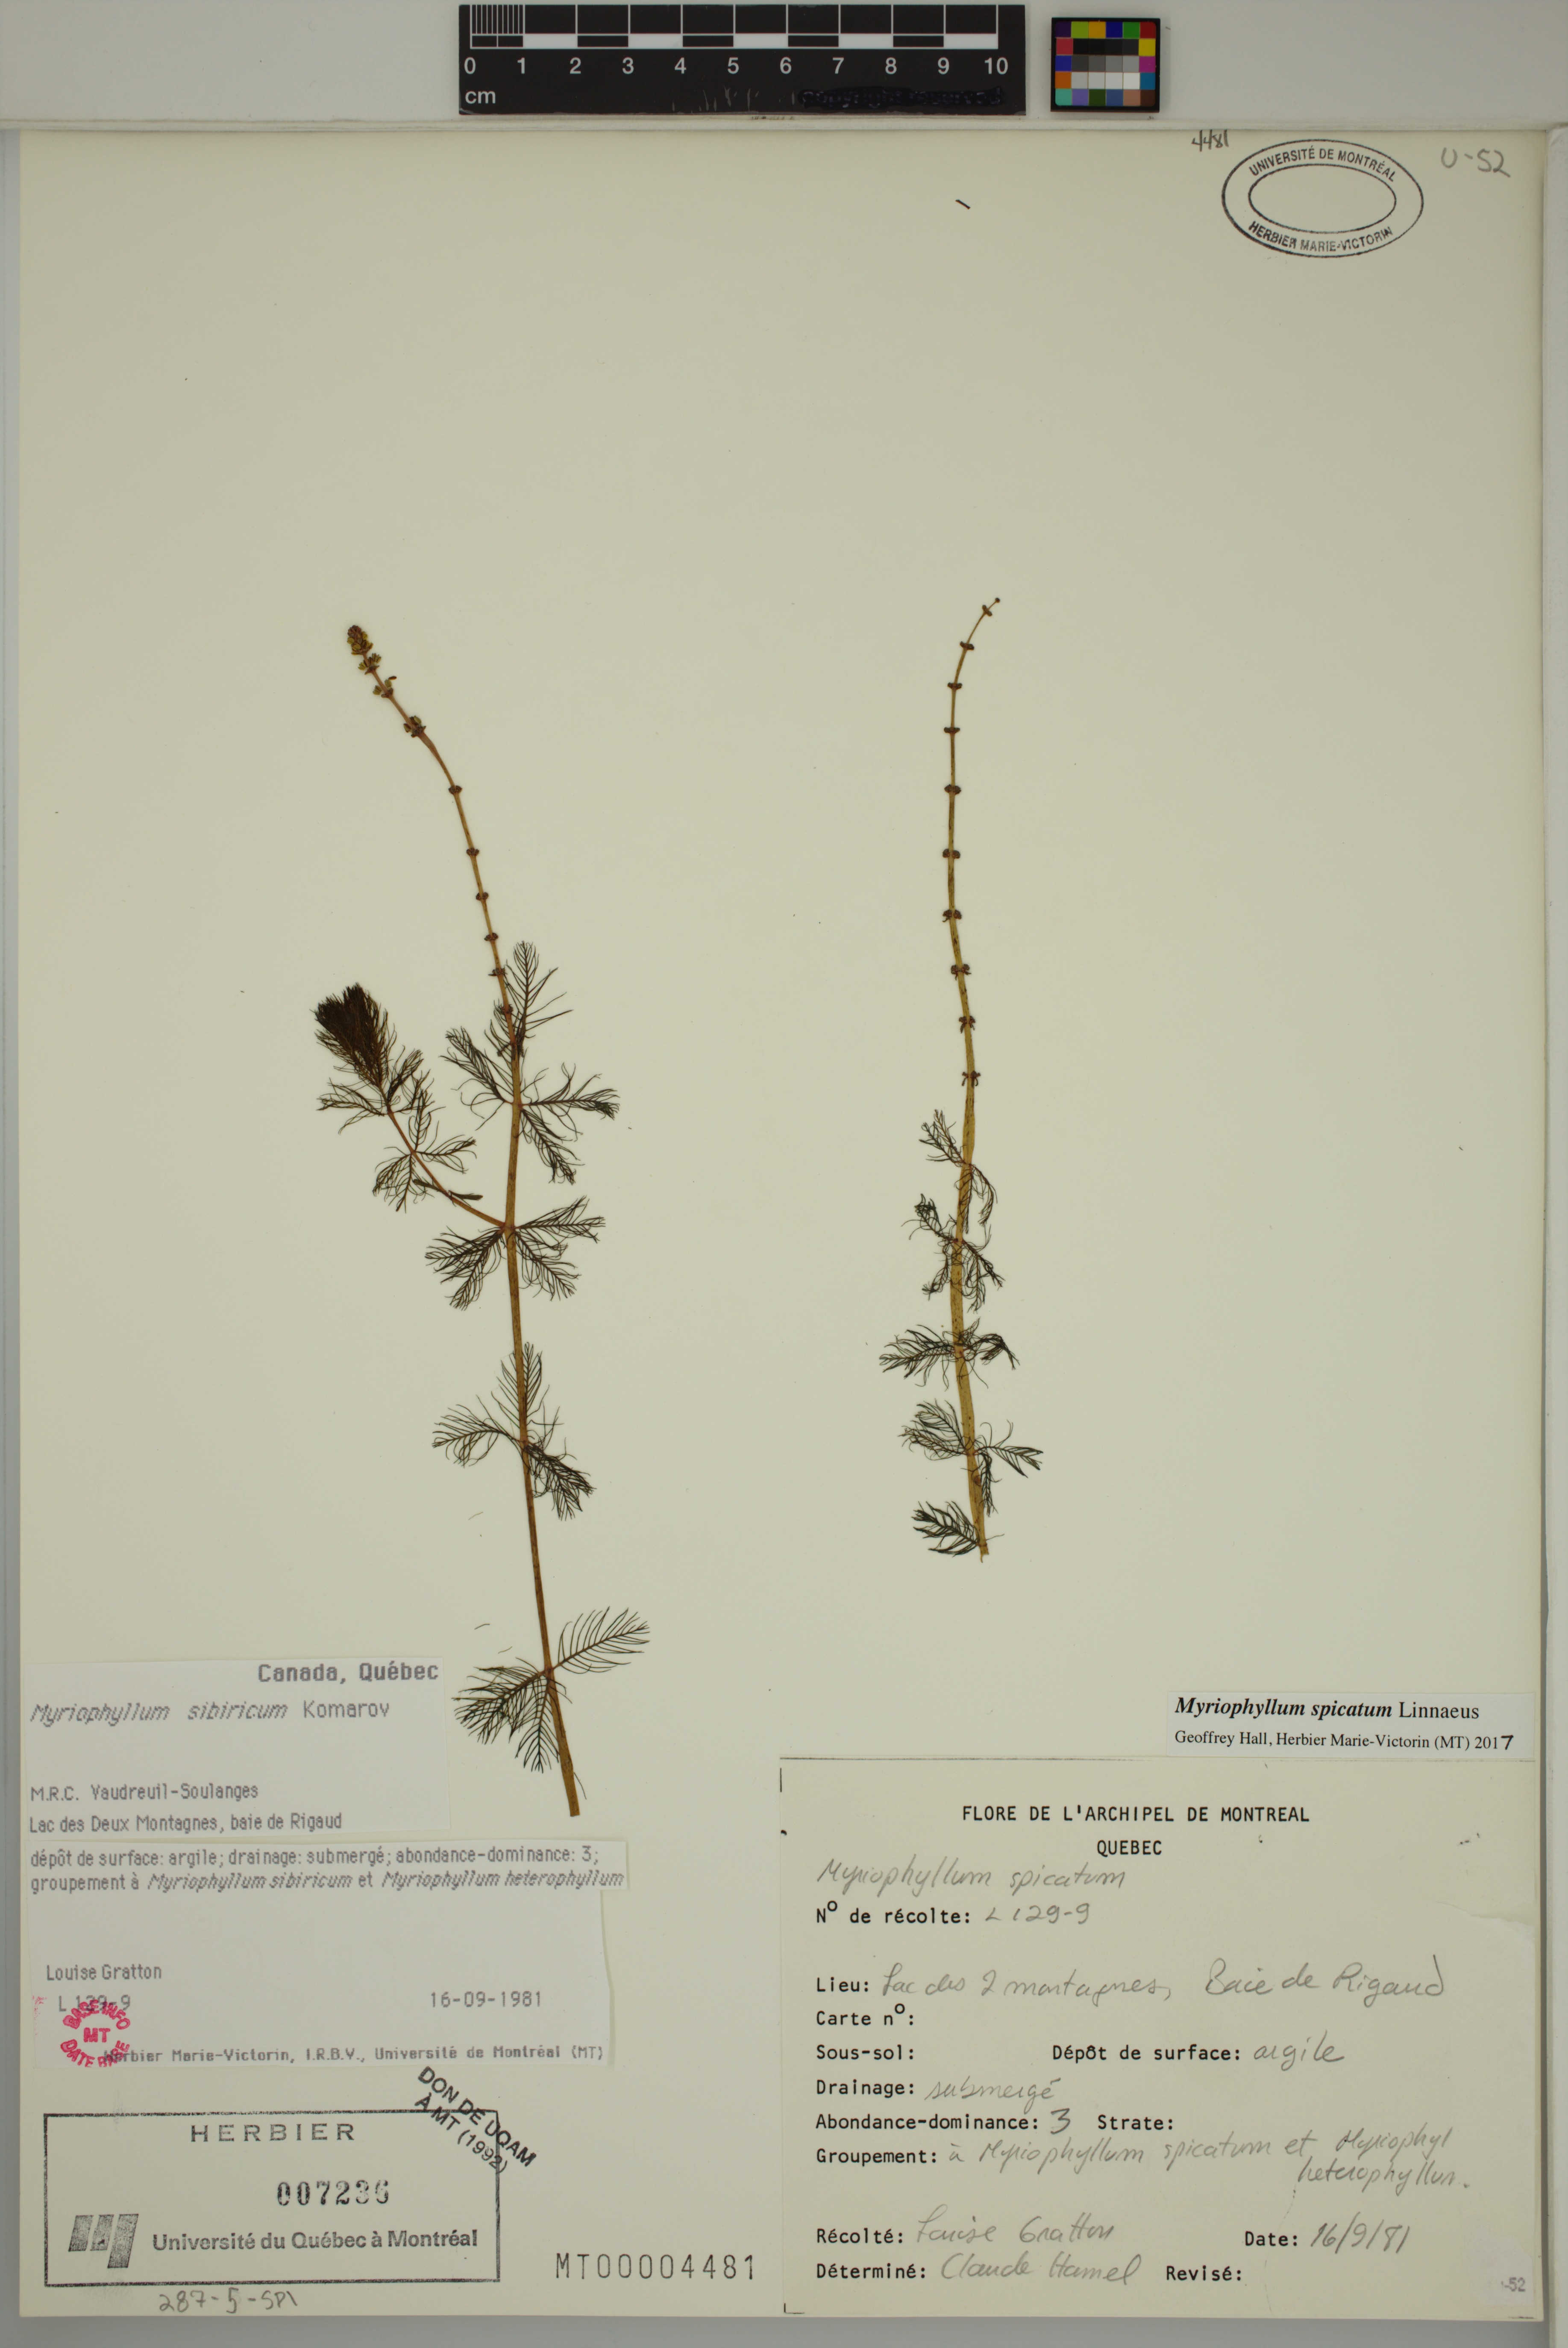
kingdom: Plantae
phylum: Tracheophyta
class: Magnoliopsida
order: Saxifragales
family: Haloragaceae
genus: Myriophyllum
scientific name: Myriophyllum spicatum
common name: Spiked water-milfoil
